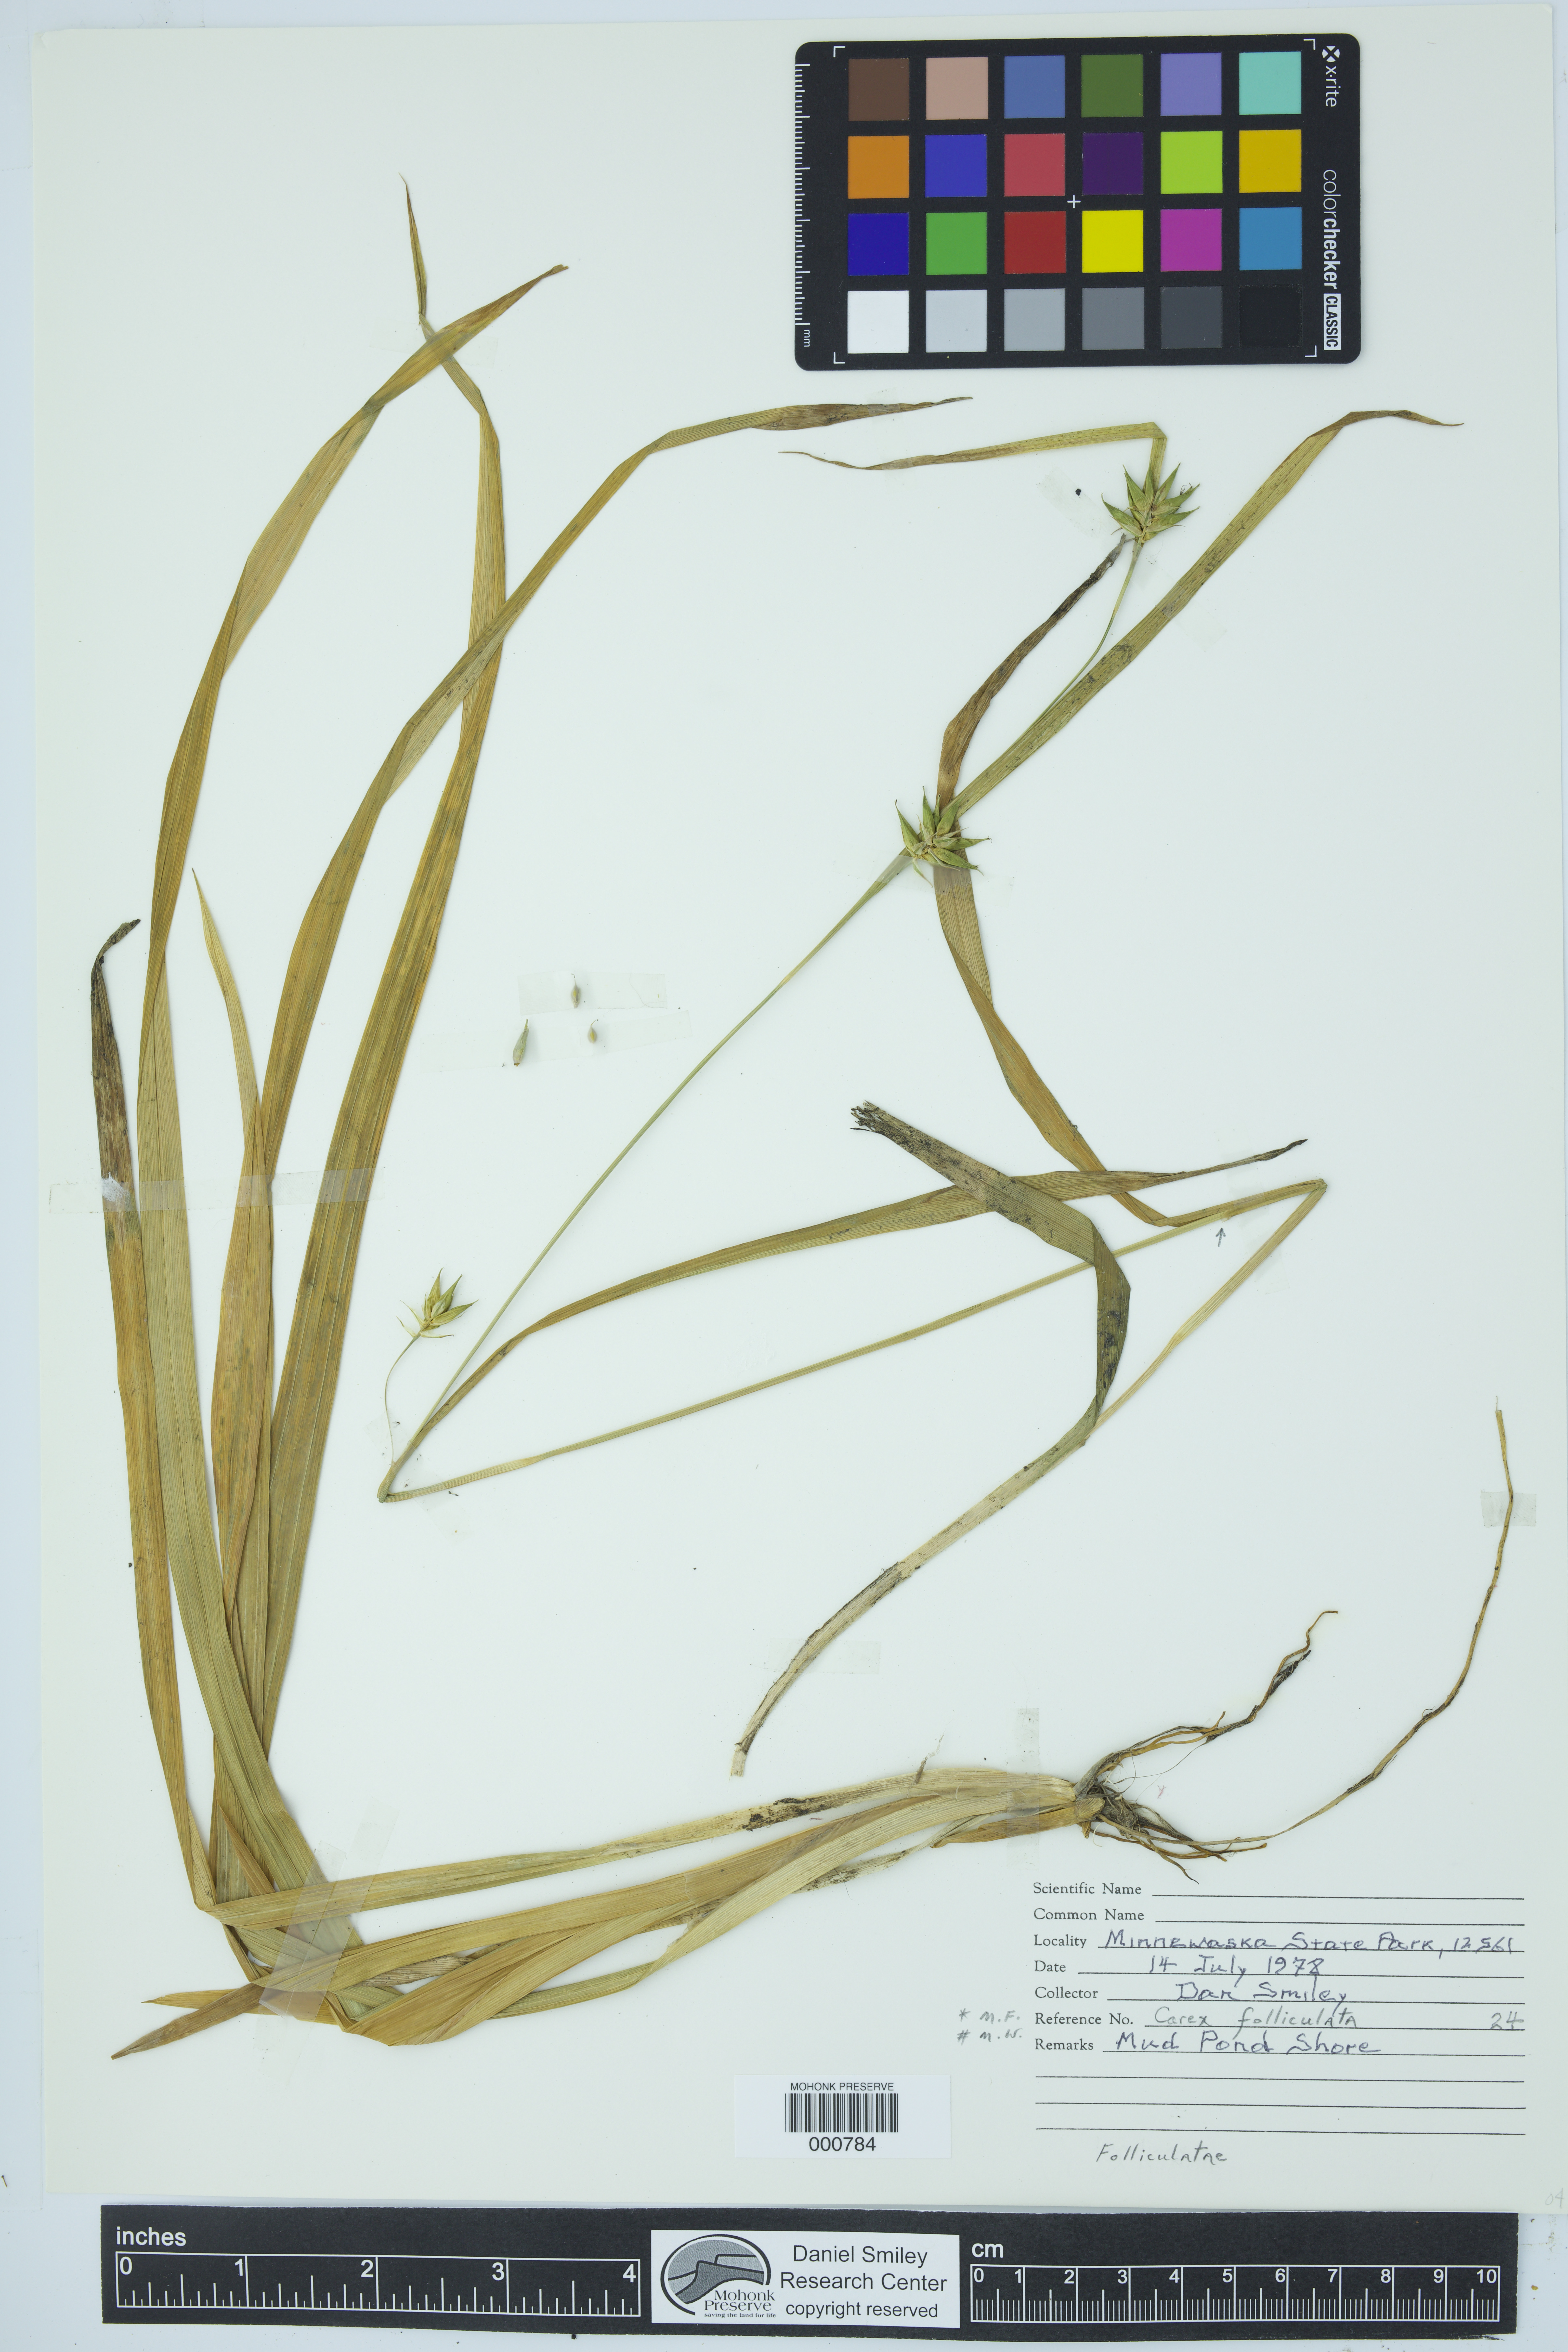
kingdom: Plantae
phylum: Tracheophyta
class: Liliopsida
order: Poales
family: Cyperaceae
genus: Carex
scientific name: Carex folliculata
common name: Northern long sedge
